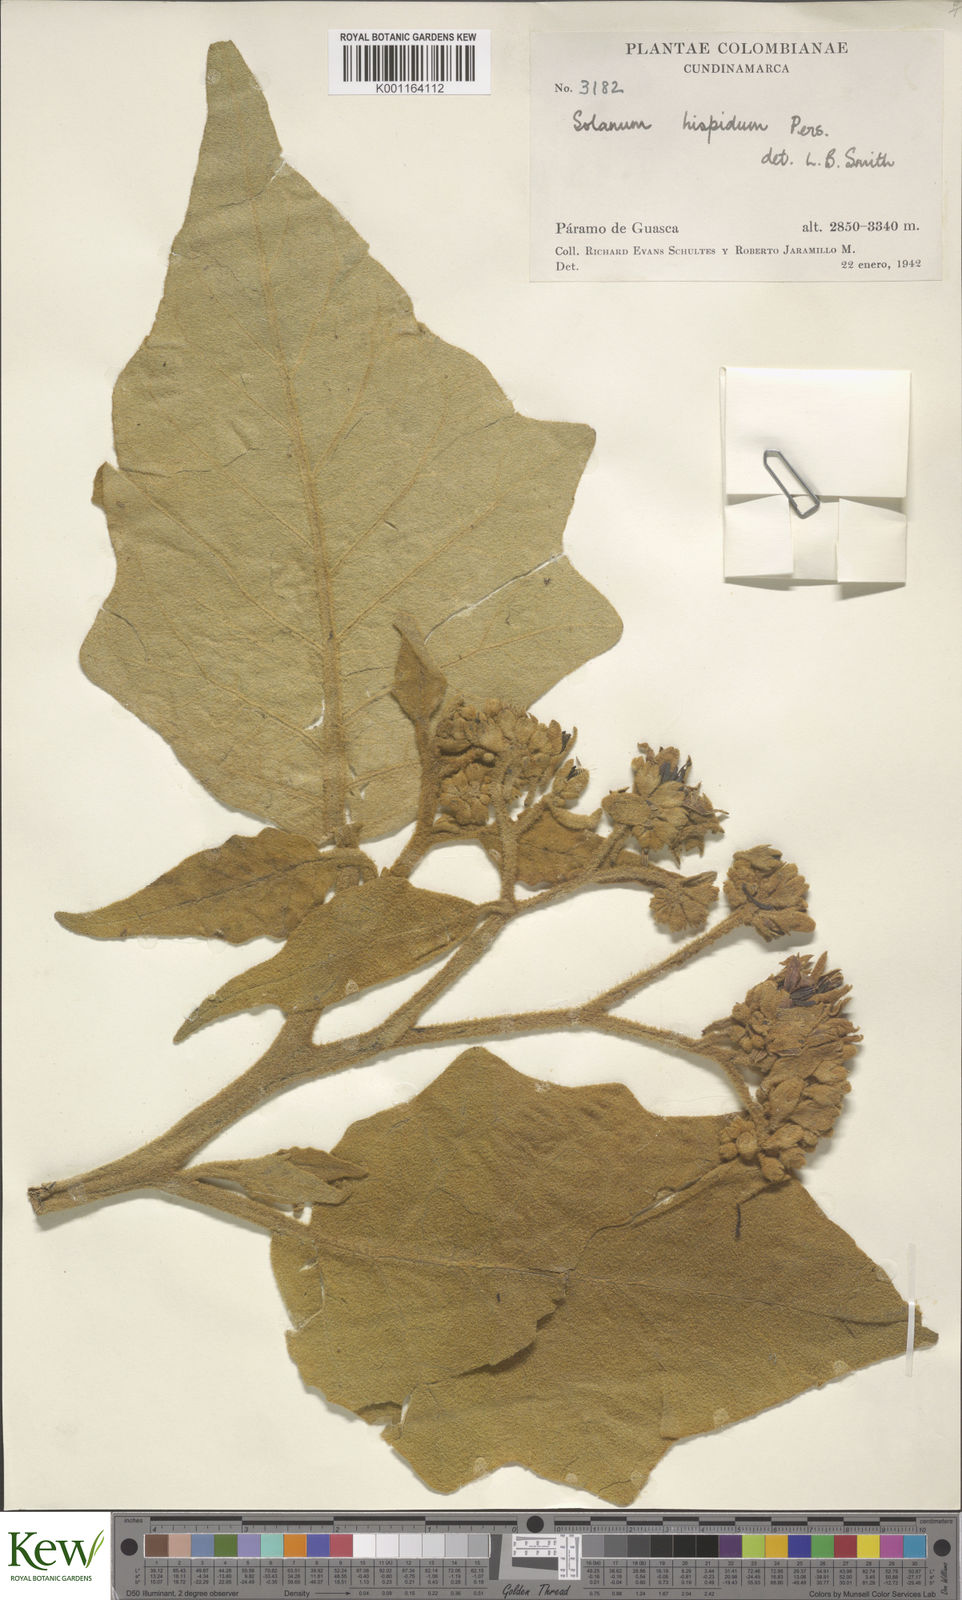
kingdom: Plantae
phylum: Tracheophyta
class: Magnoliopsida
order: Solanales
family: Solanaceae
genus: Solanum
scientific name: Solanum hirtum
